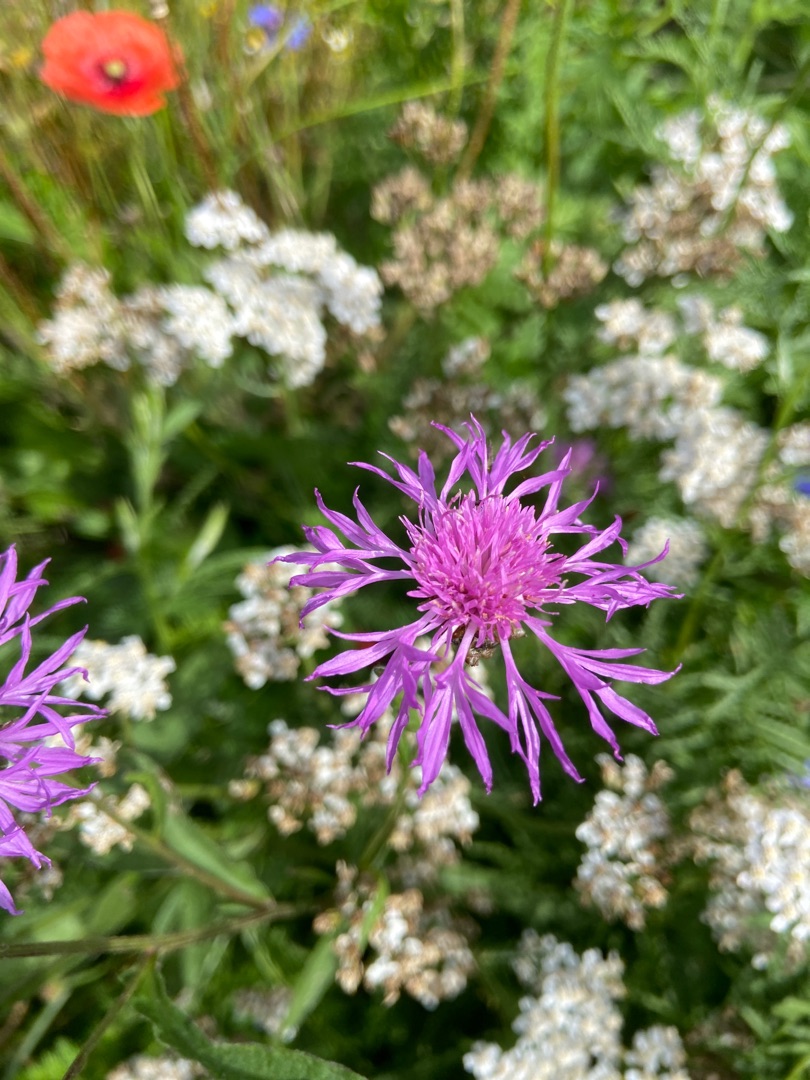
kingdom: Plantae
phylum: Tracheophyta
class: Magnoliopsida
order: Asterales
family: Asteraceae
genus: Centaurea
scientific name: Centaurea jacea
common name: Almindelig knopurt
